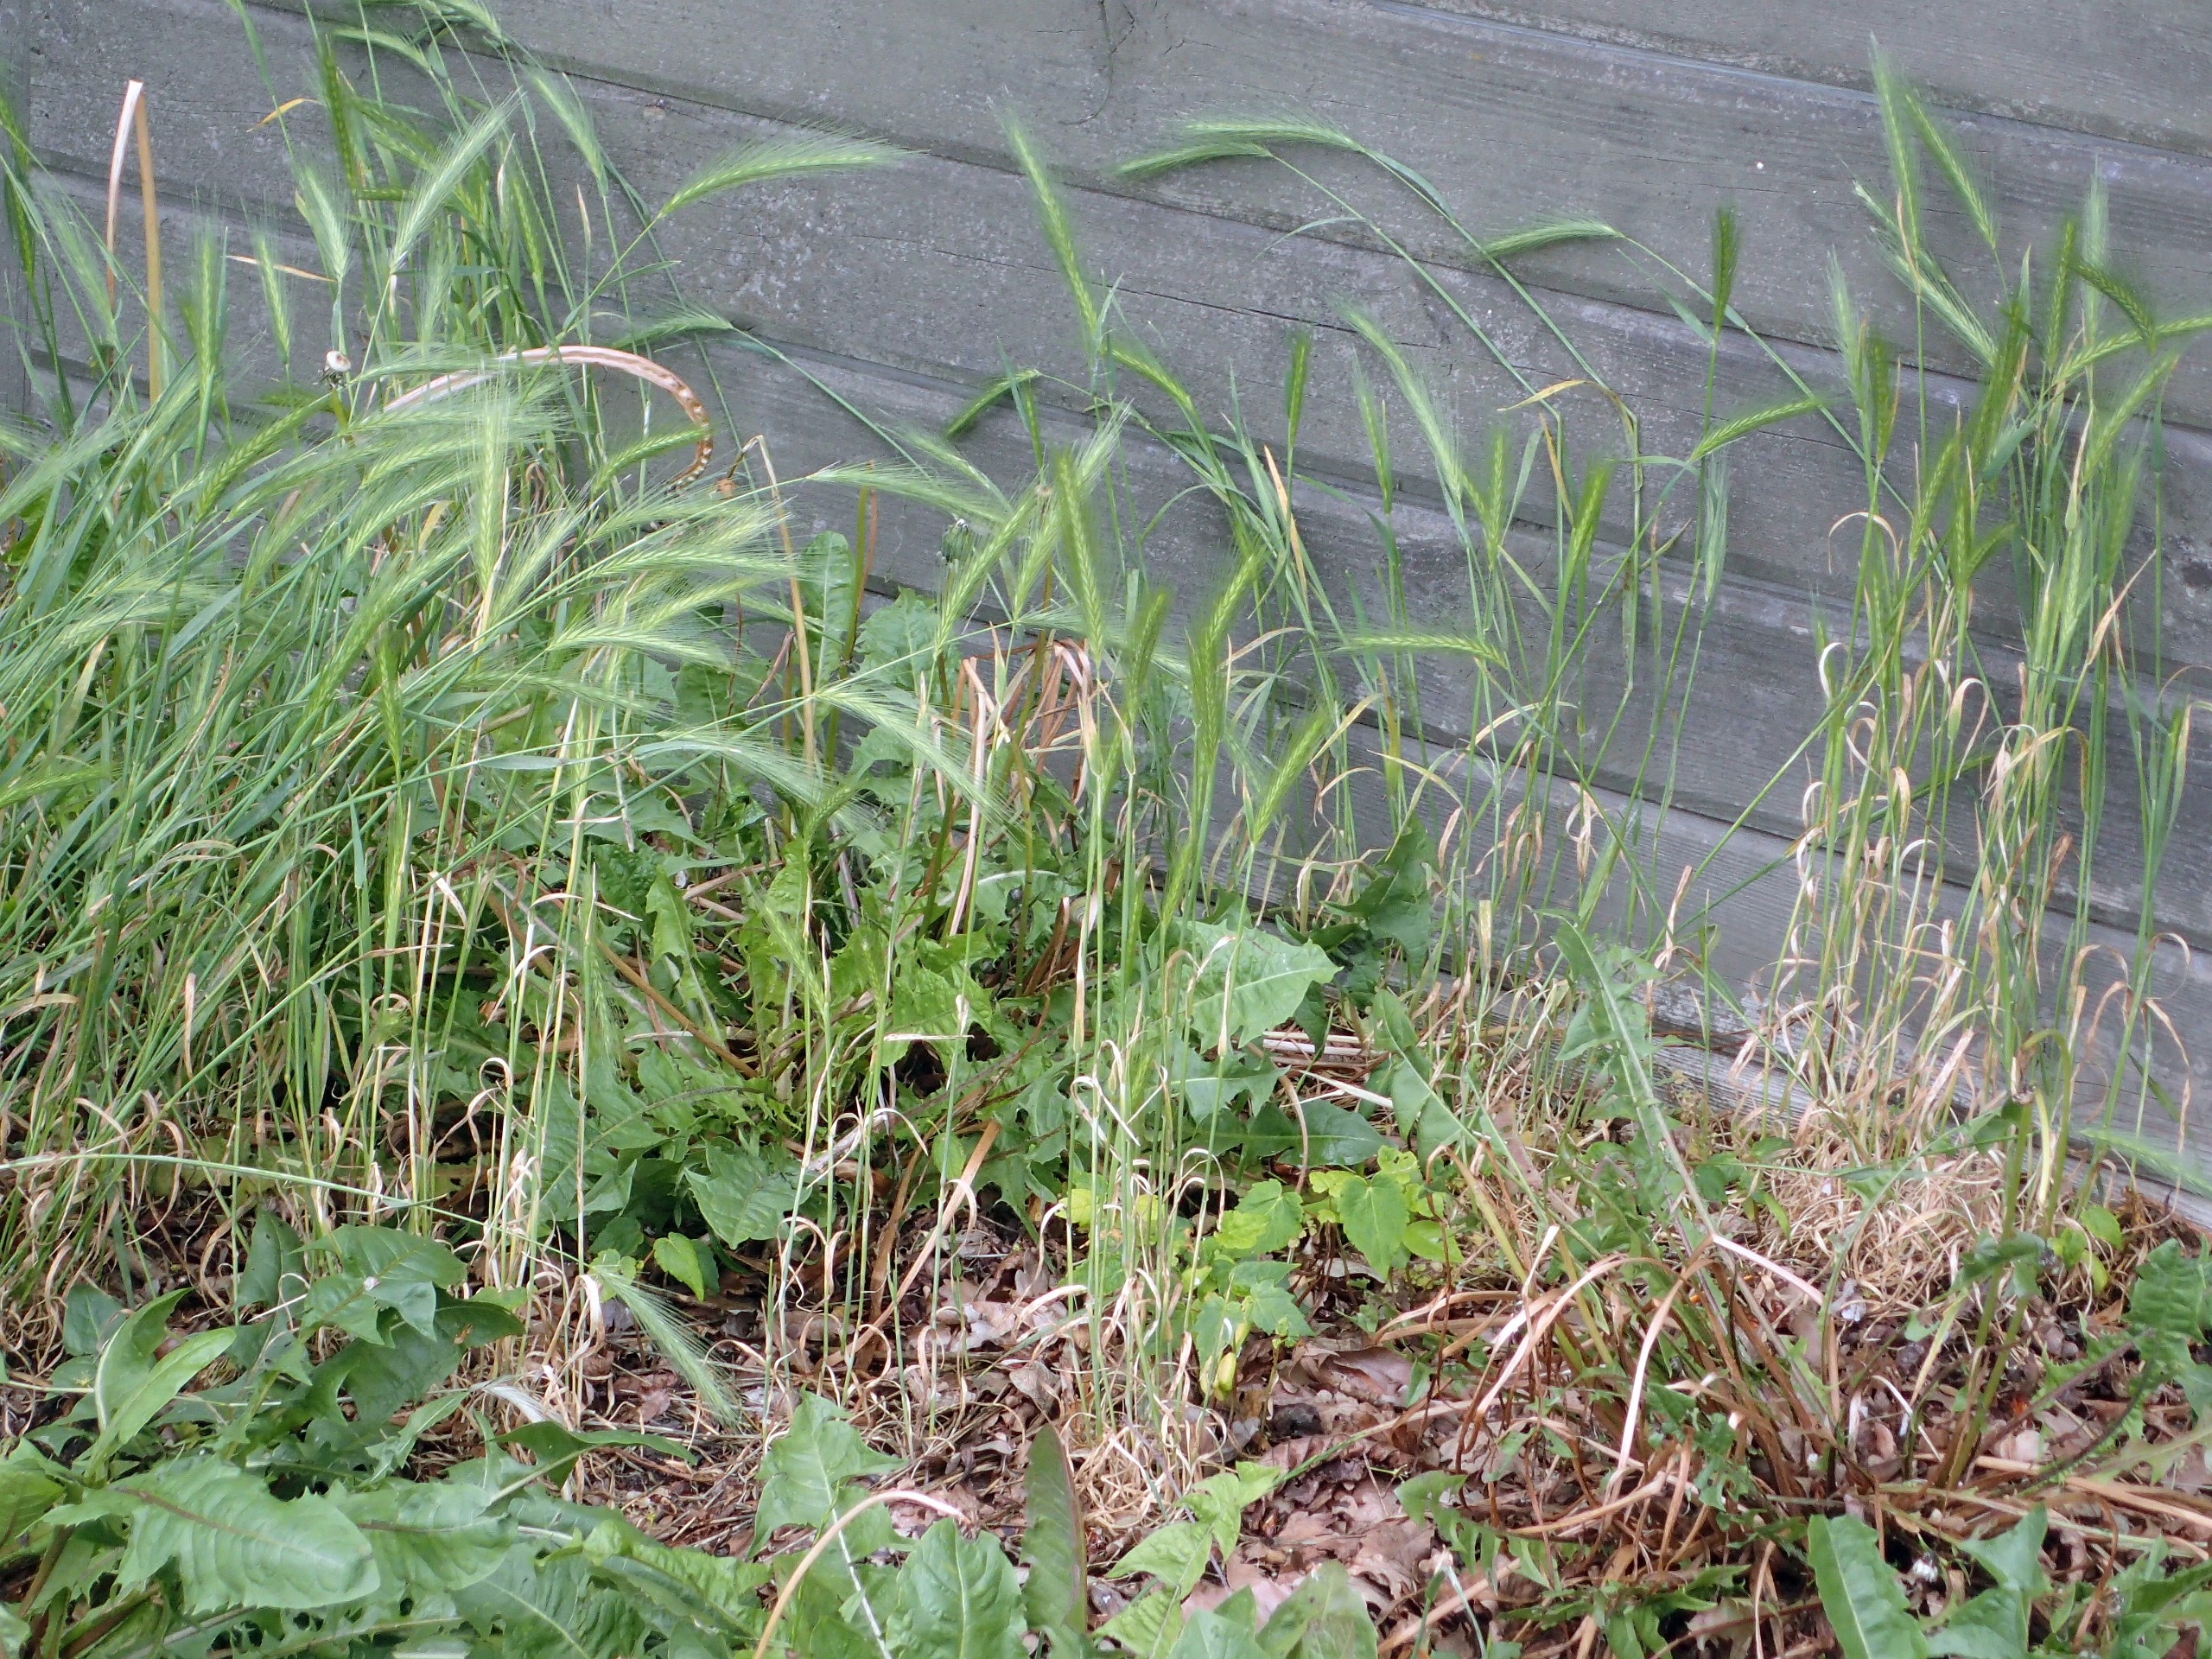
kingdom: Plantae
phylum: Tracheophyta
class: Liliopsida
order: Poales
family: Poaceae
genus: Hordeum
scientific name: Hordeum murinum
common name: Gold byg
